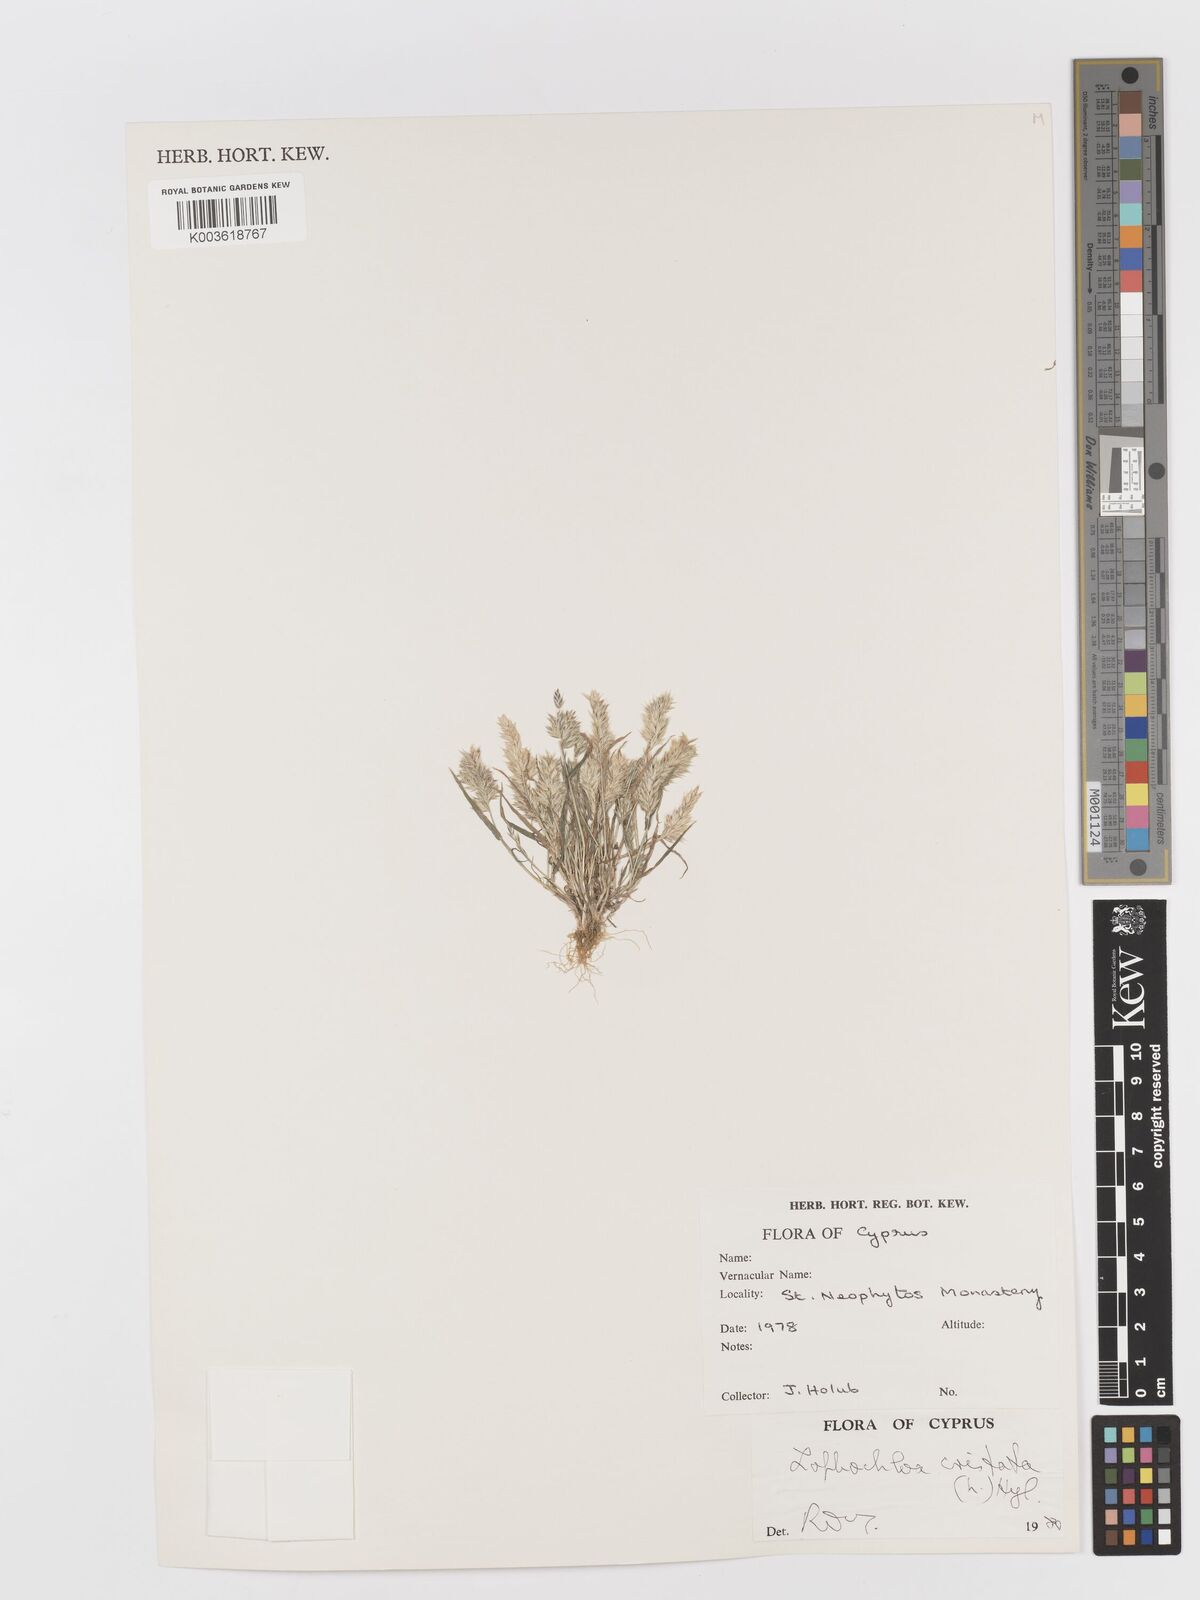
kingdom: Plantae
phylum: Tracheophyta
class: Liliopsida
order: Poales
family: Poaceae
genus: Rostraria
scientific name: Rostraria cristata
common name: Mediterranean hair-grass
